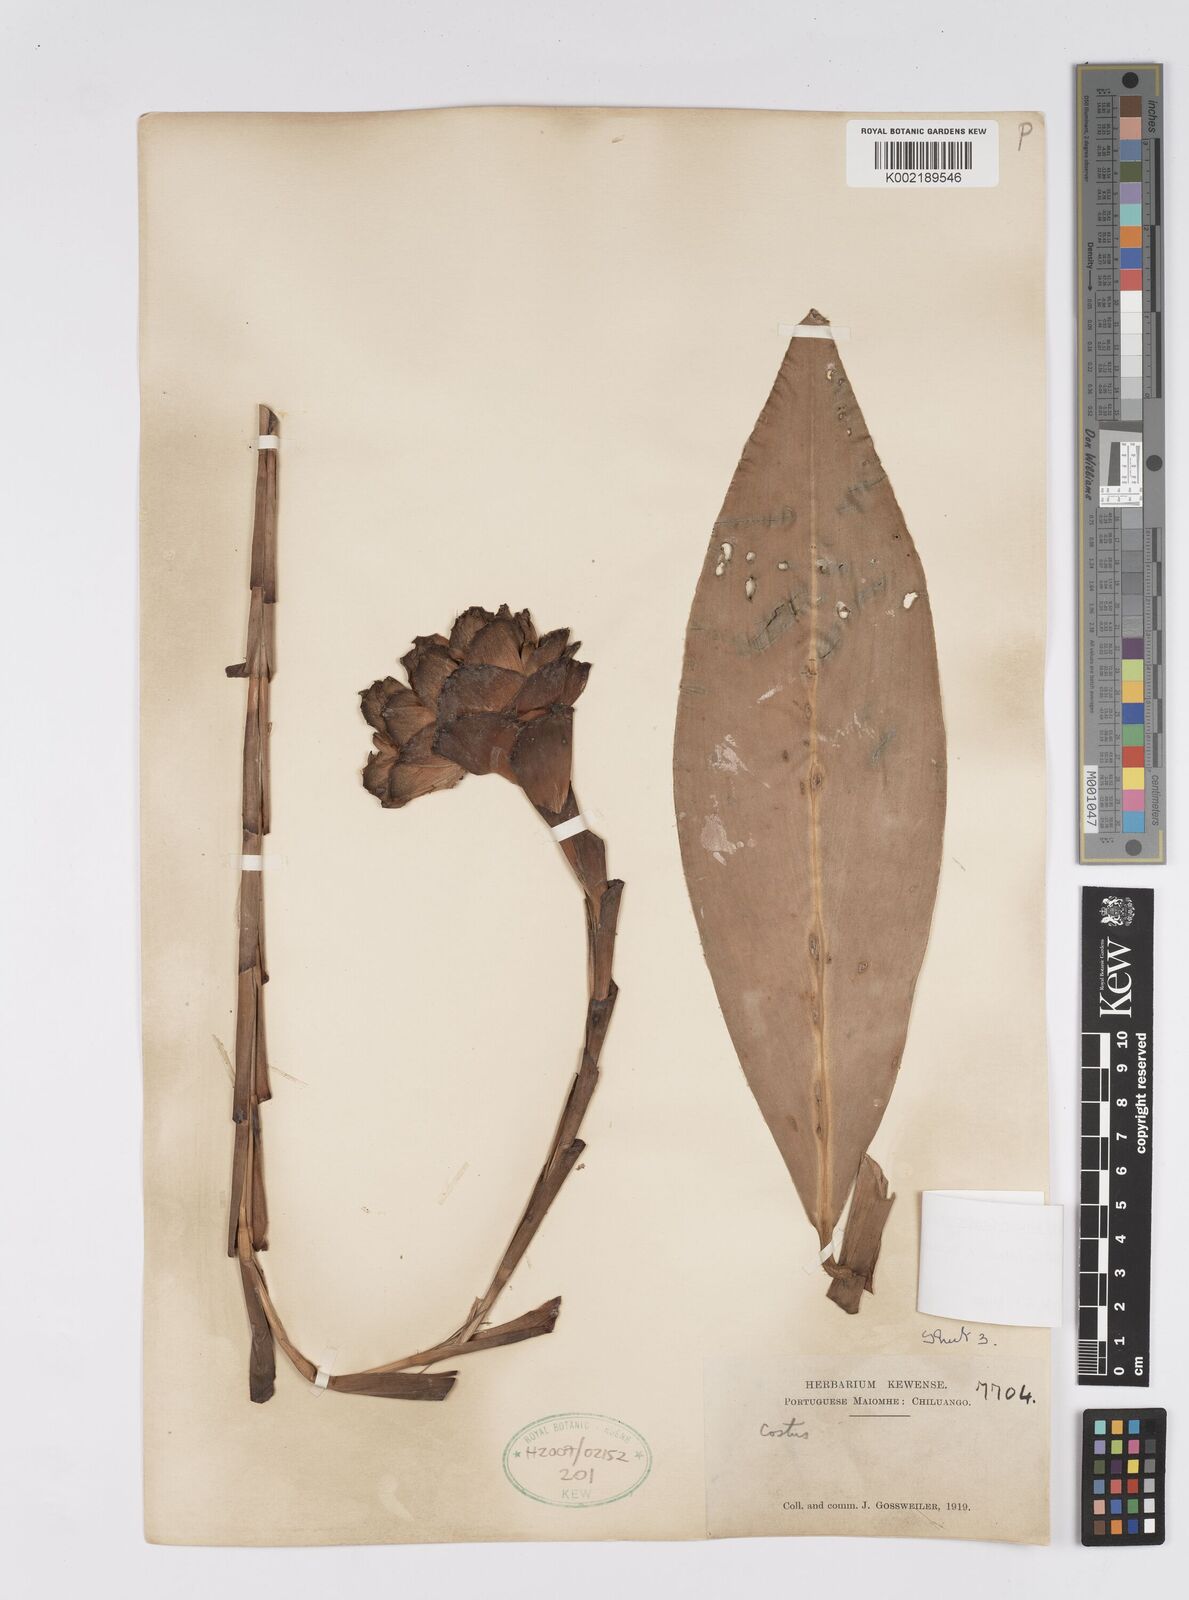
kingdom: Plantae
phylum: Tracheophyta
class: Liliopsida
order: Zingiberales
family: Costaceae
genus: Costus
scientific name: Costus dubius
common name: Costus
